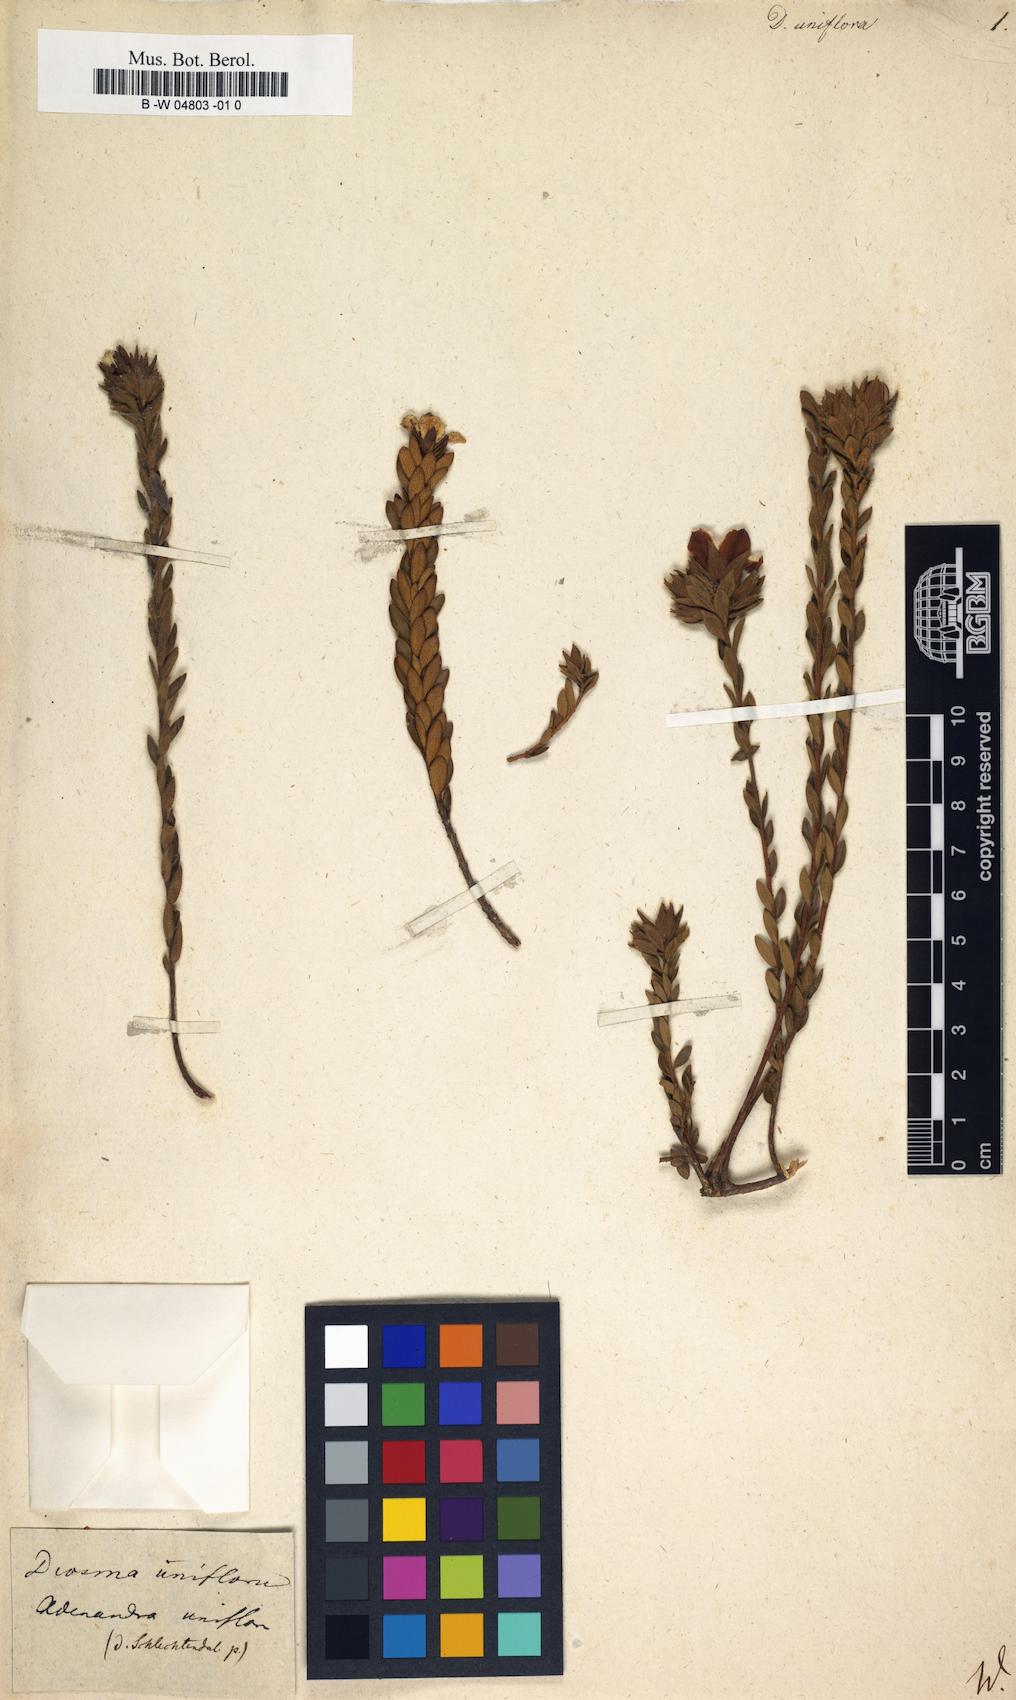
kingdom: Plantae
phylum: Tracheophyta
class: Magnoliopsida
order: Sapindales
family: Rutaceae
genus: Adenandra
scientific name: Adenandra uniflora
